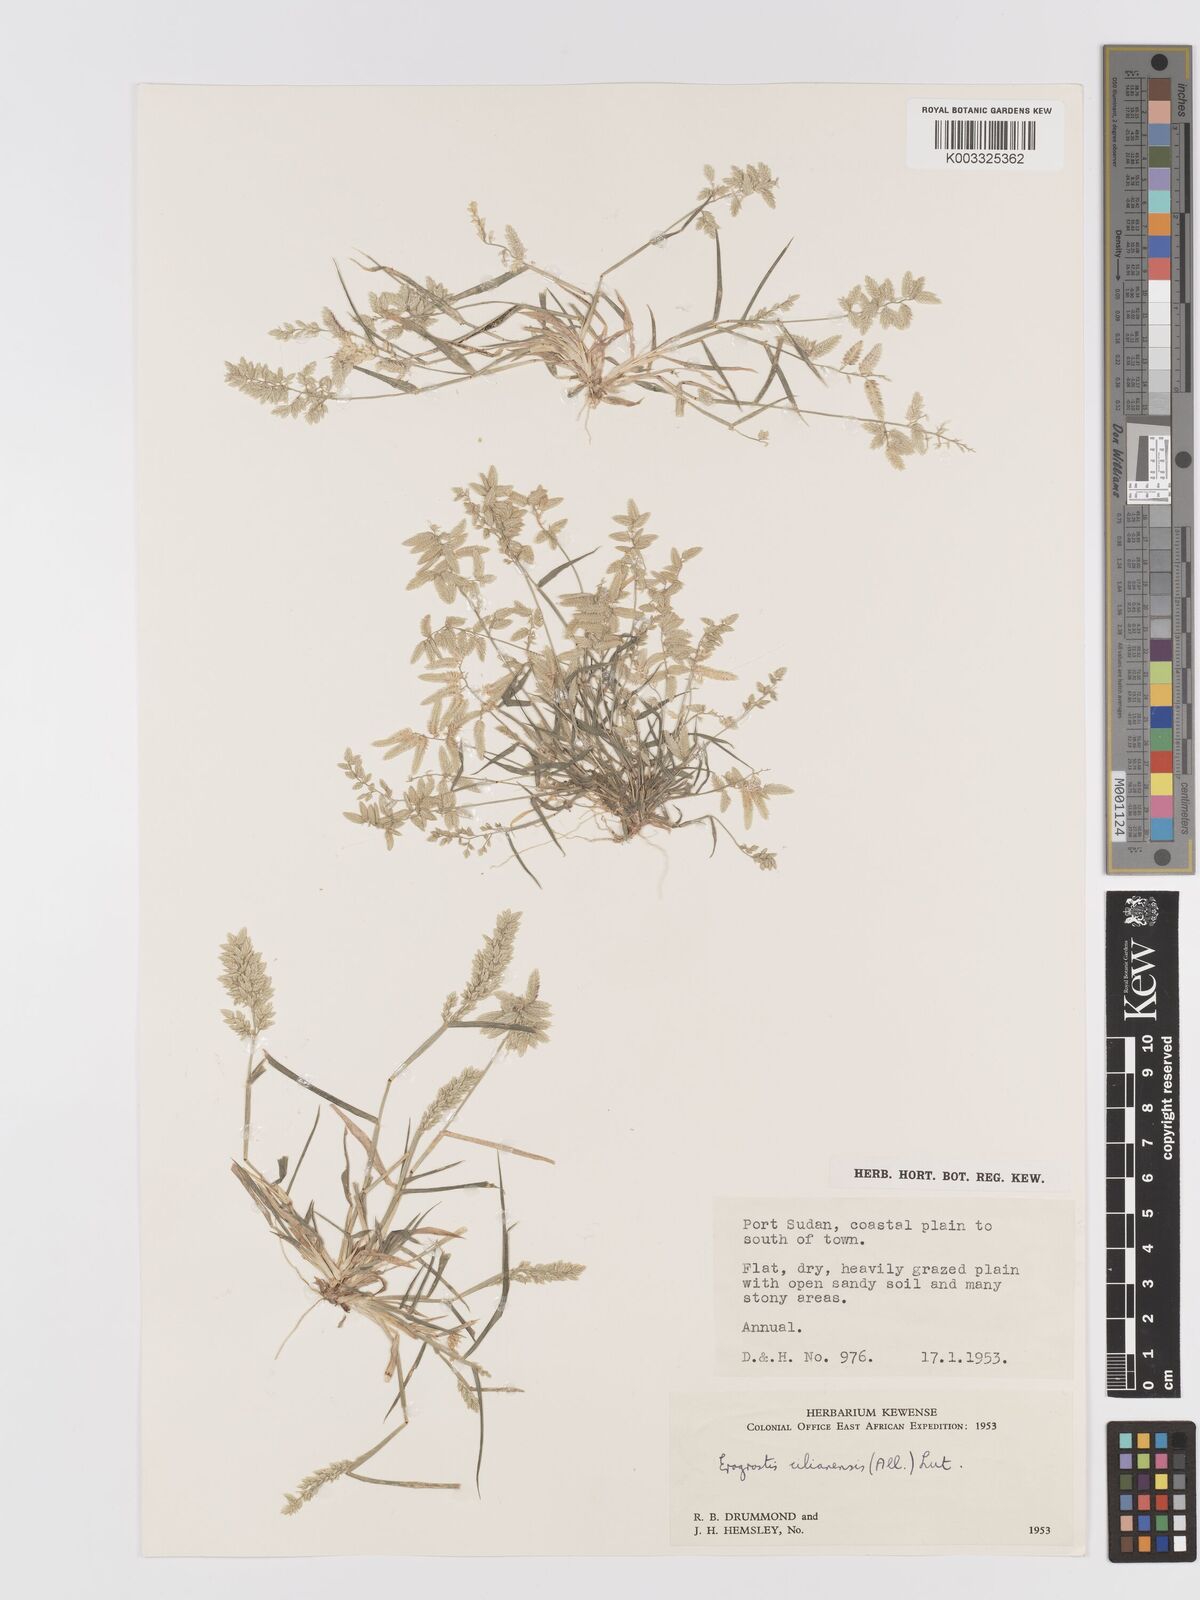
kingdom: Plantae
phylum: Tracheophyta
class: Liliopsida
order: Poales
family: Poaceae
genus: Eragrostis
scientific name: Eragrostis cilianensis
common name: Stinkgrass
